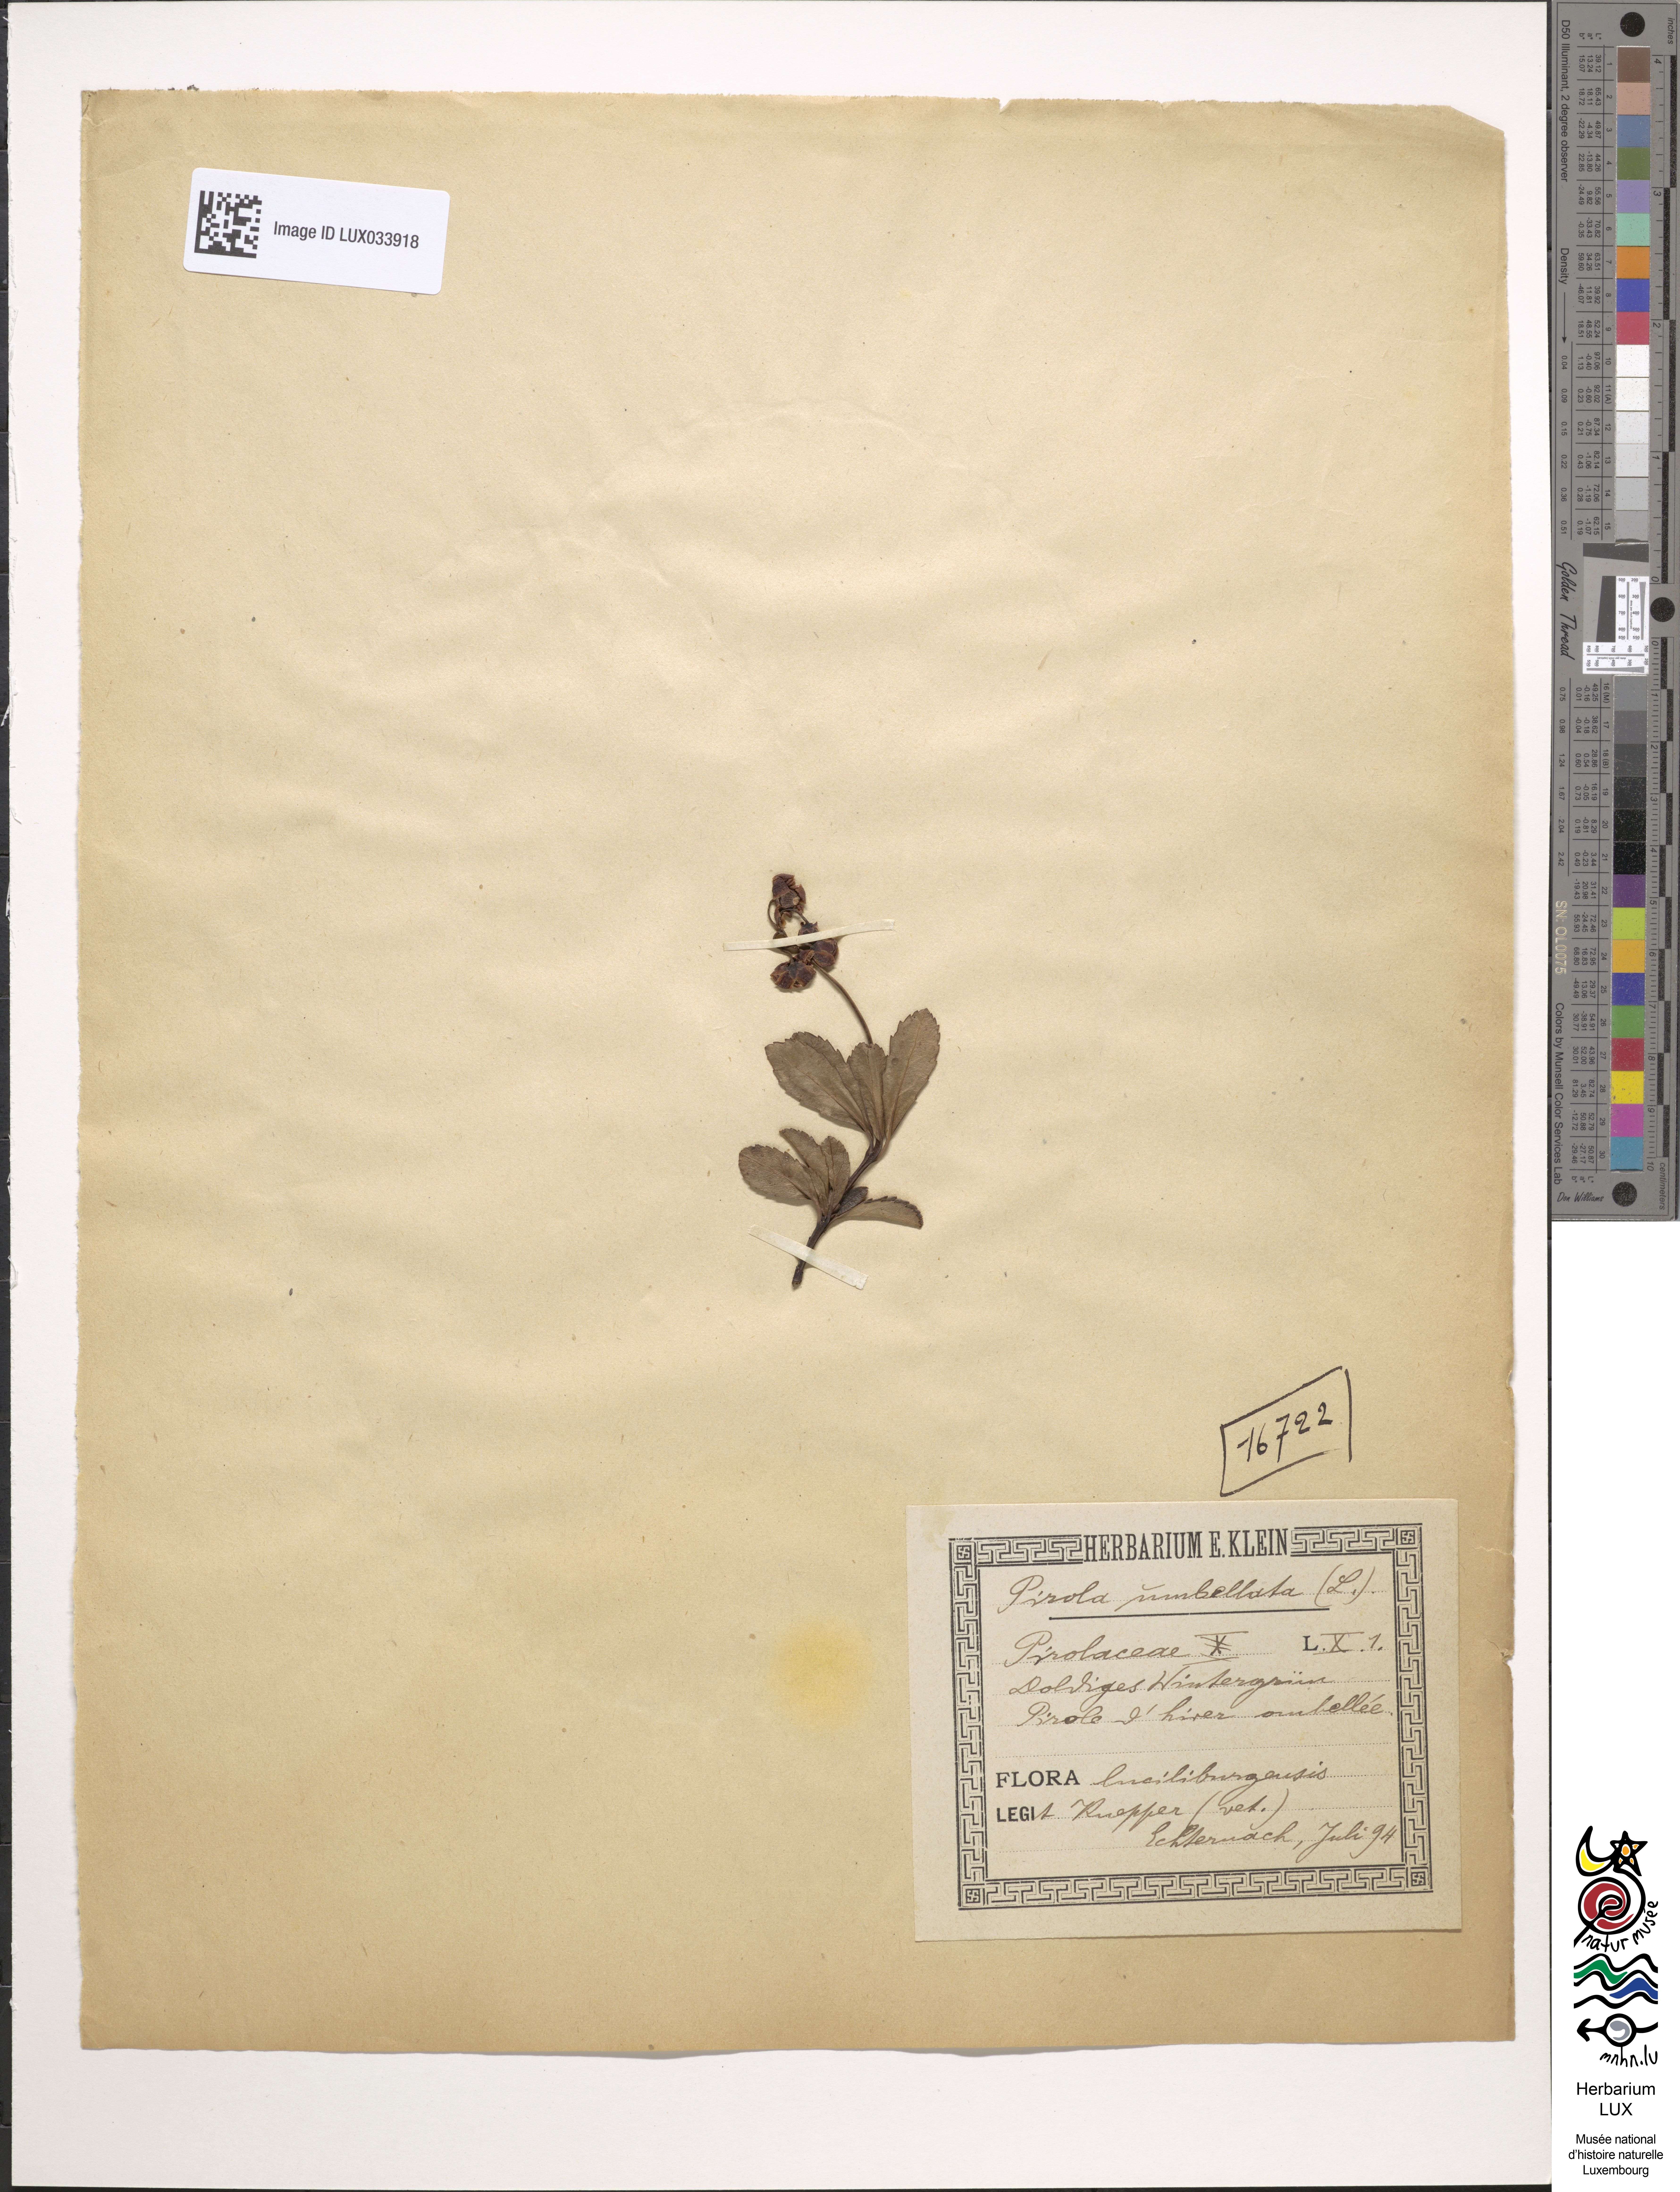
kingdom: Plantae
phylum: Tracheophyta
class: Magnoliopsida
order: Ericales
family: Ericaceae
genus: Chimaphila
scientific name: Chimaphila umbellata
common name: Pipsissewa
